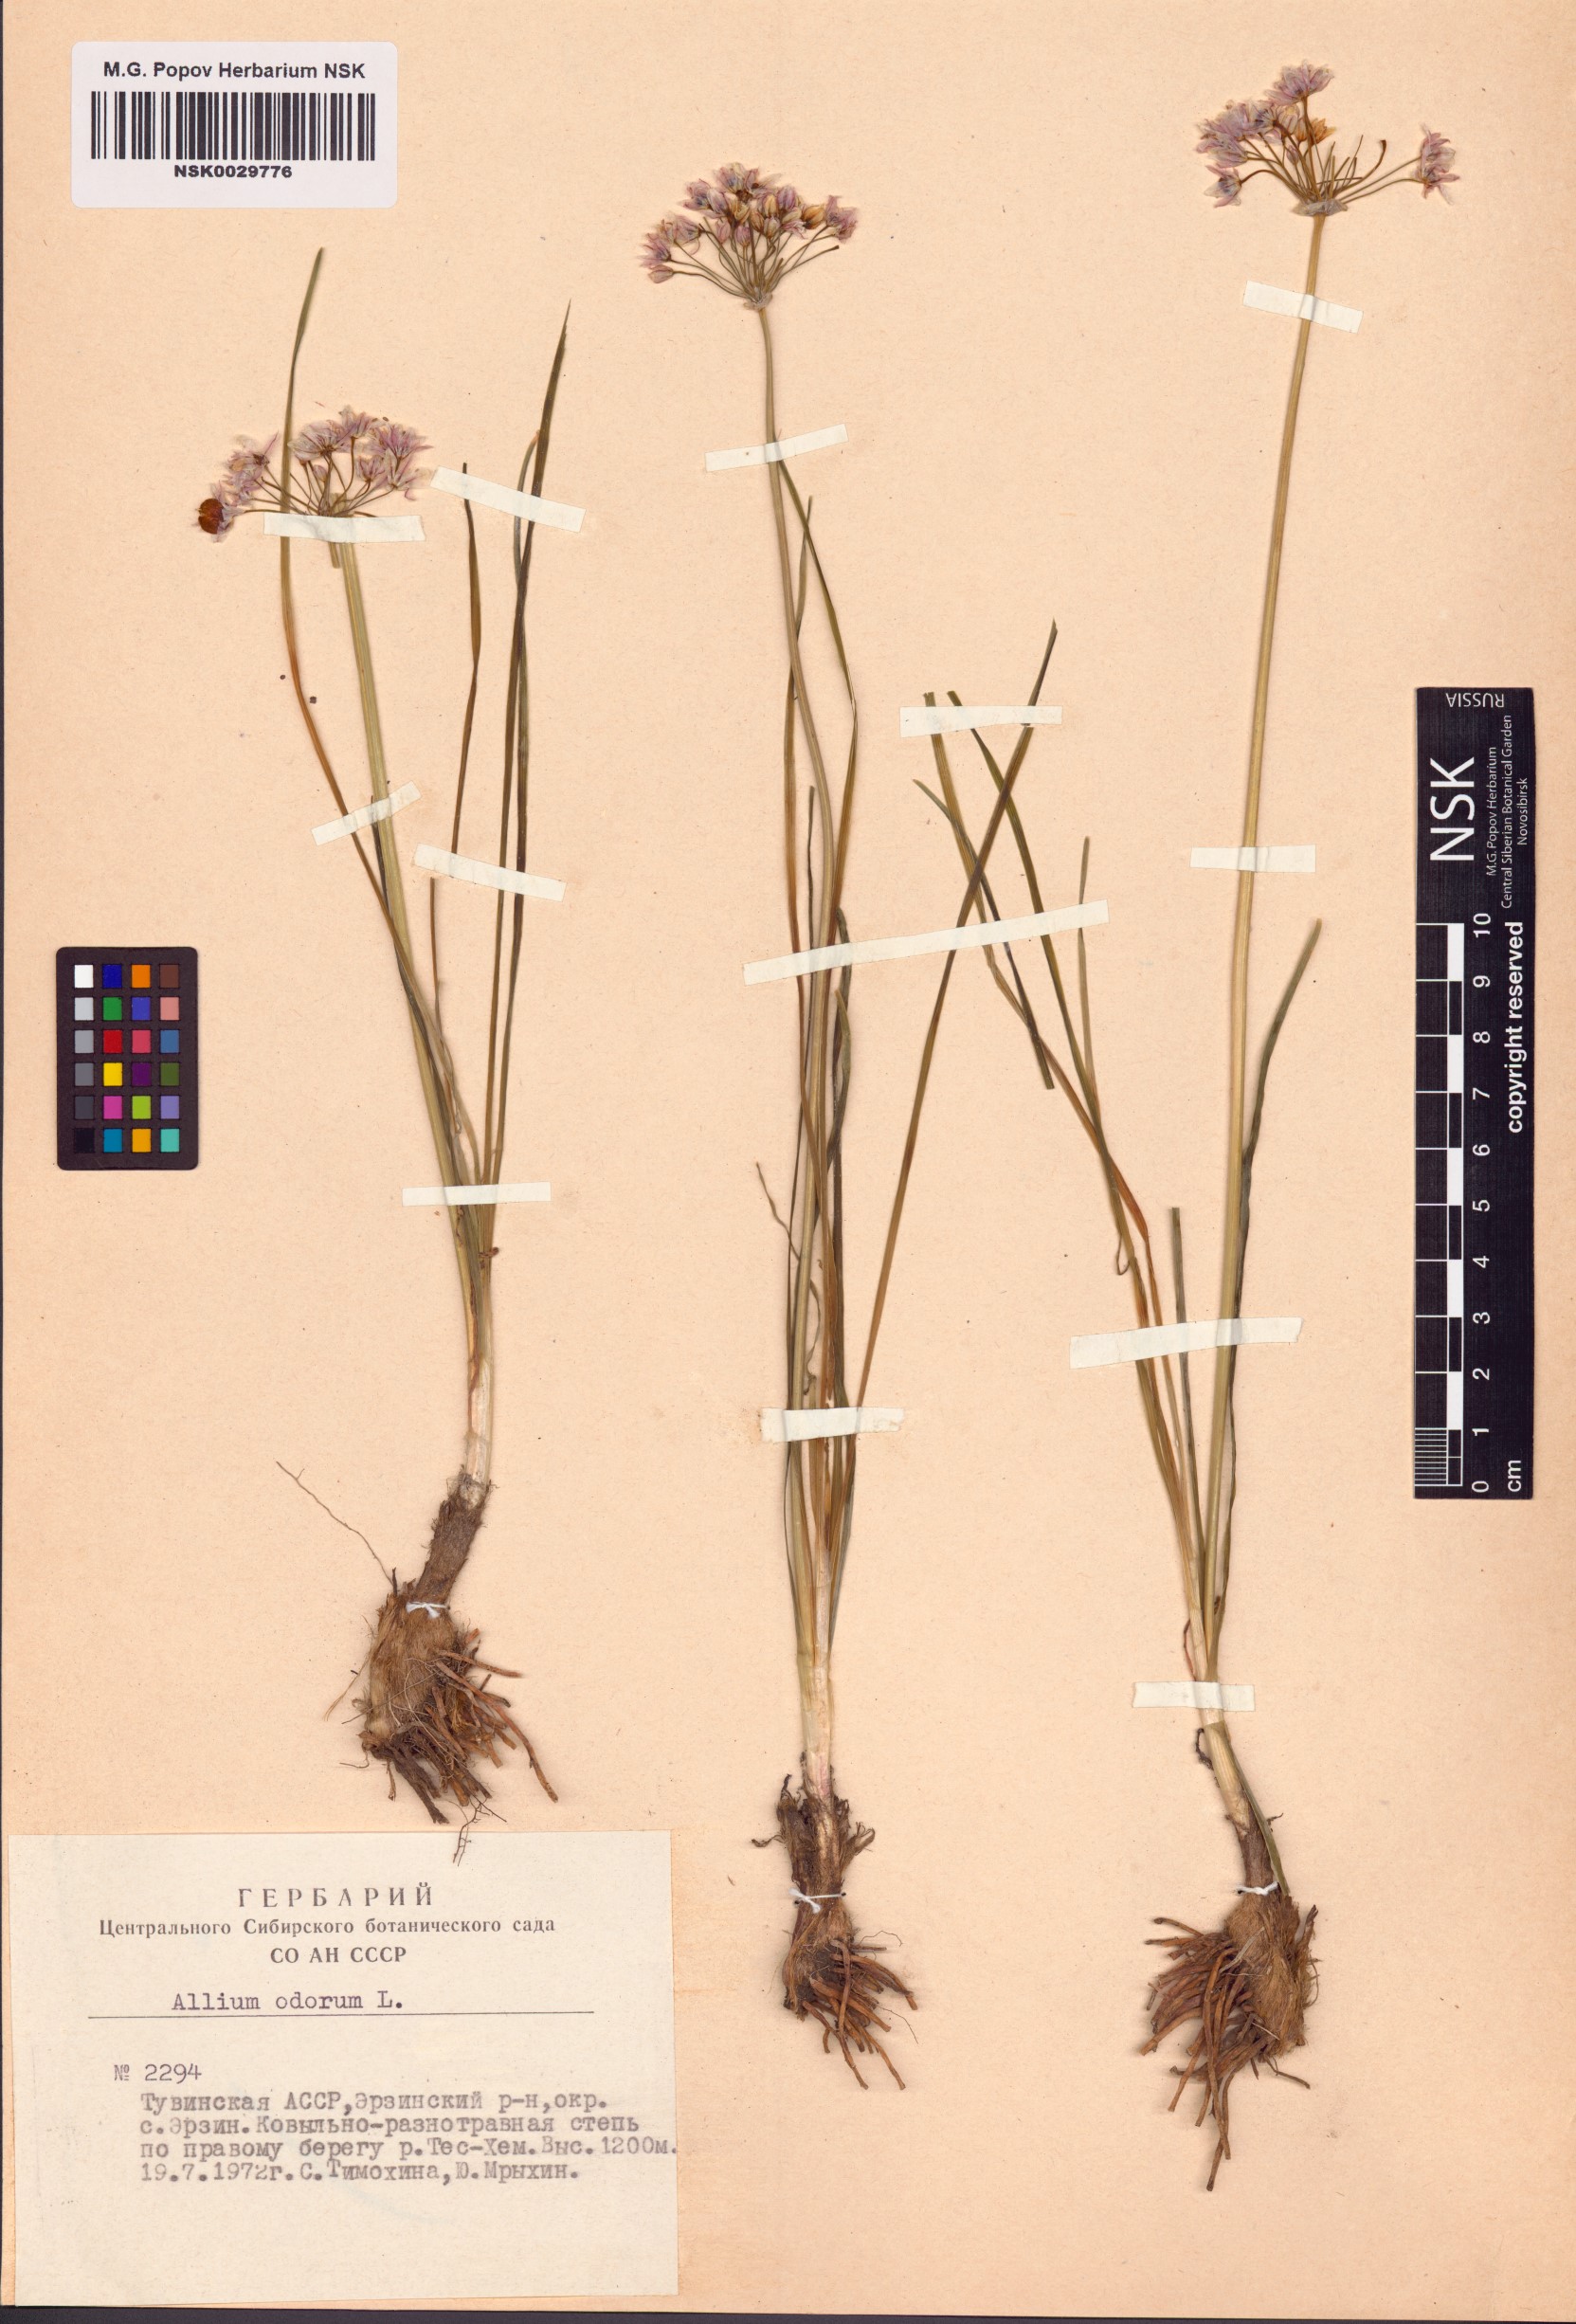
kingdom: Plantae
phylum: Tracheophyta
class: Liliopsida
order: Asparagales
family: Amaryllidaceae
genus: Allium
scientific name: Allium ramosum
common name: Fragrant garlic
